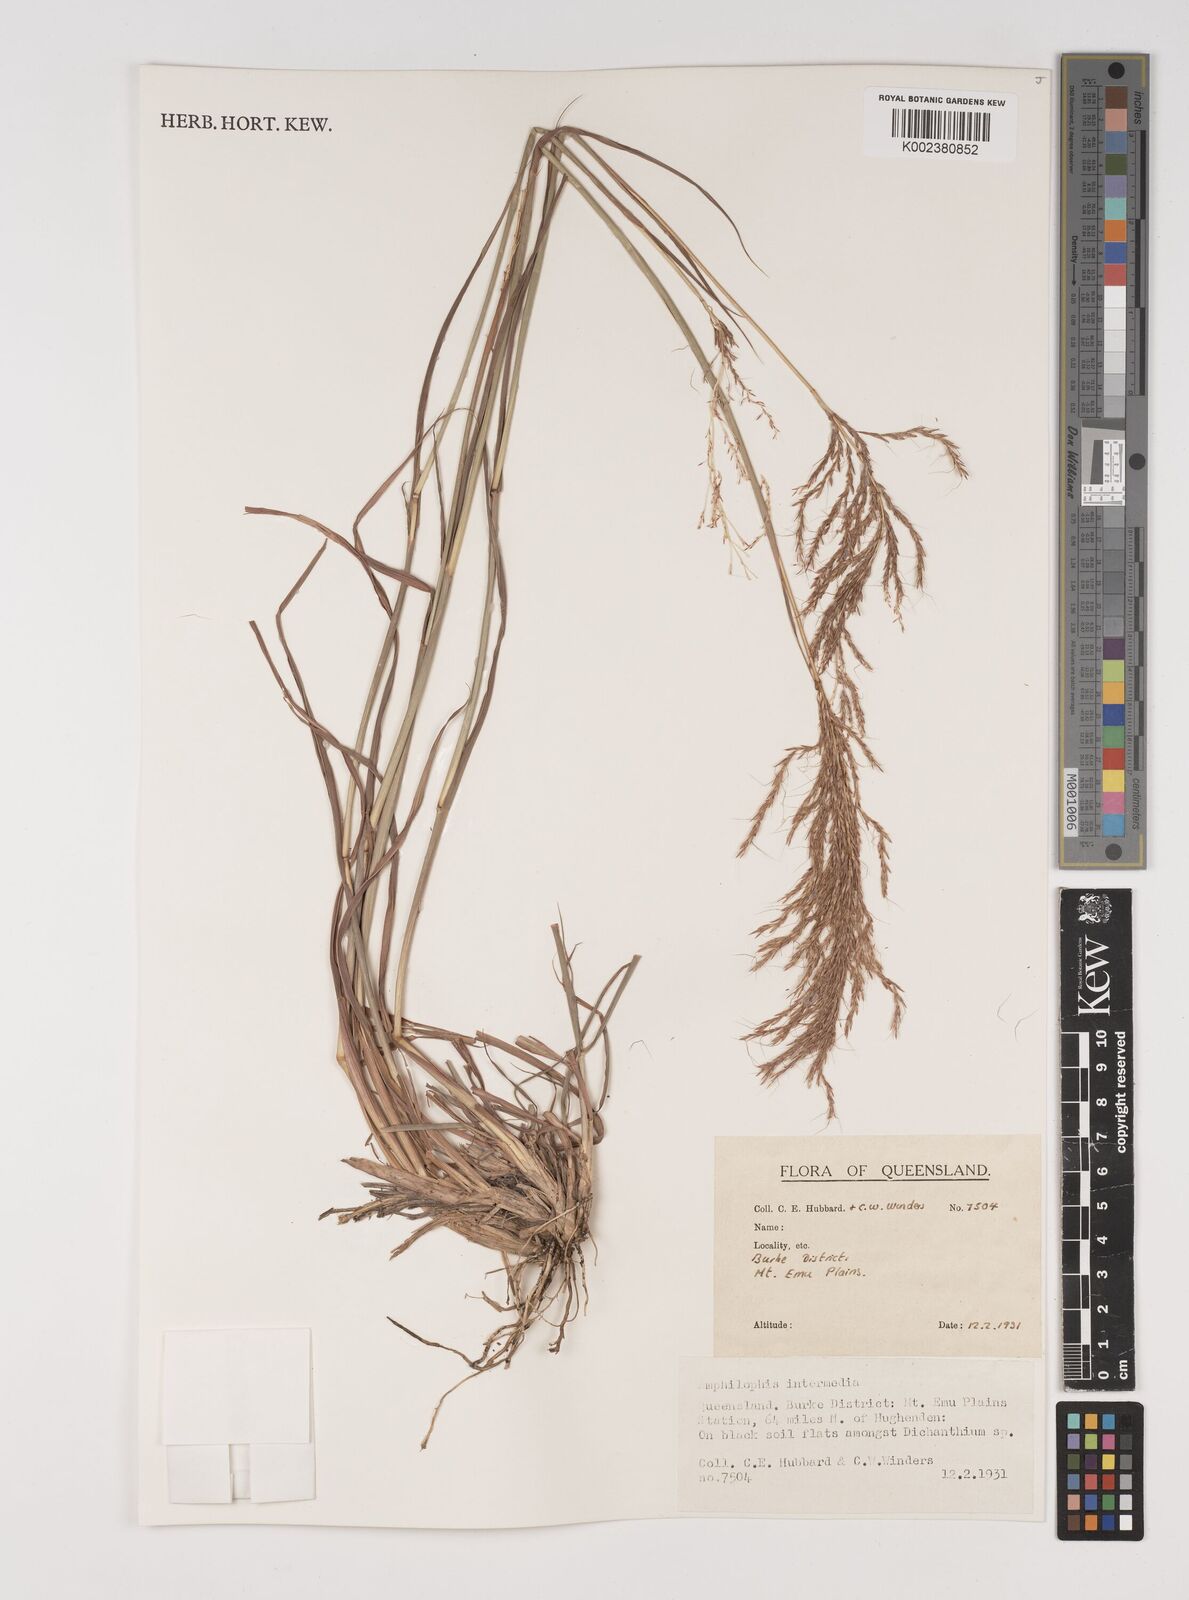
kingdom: Plantae
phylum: Tracheophyta
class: Liliopsida
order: Poales
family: Poaceae
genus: Bothriochloa
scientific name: Bothriochloa bladhii
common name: Caucasian bluestem
